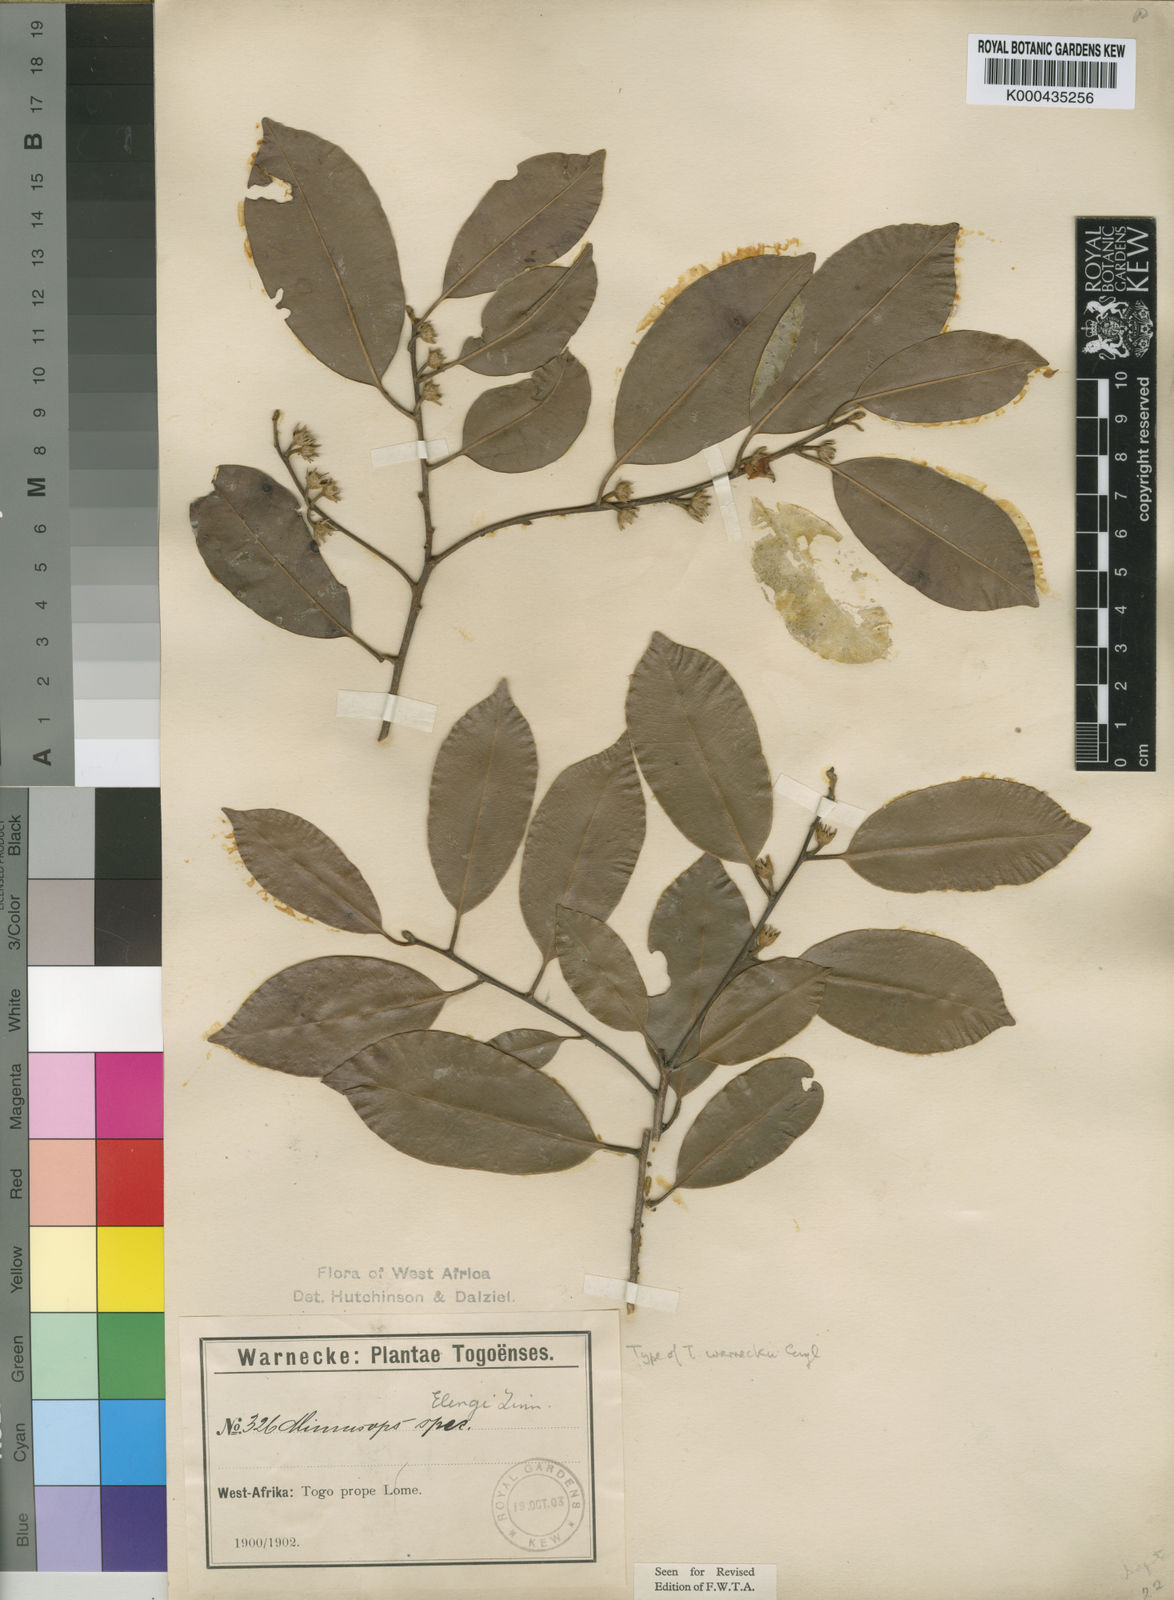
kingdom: Plantae
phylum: Tracheophyta
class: Magnoliopsida
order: Ericales
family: Sapotaceae
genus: Mimusops
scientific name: Mimusops andongensis
